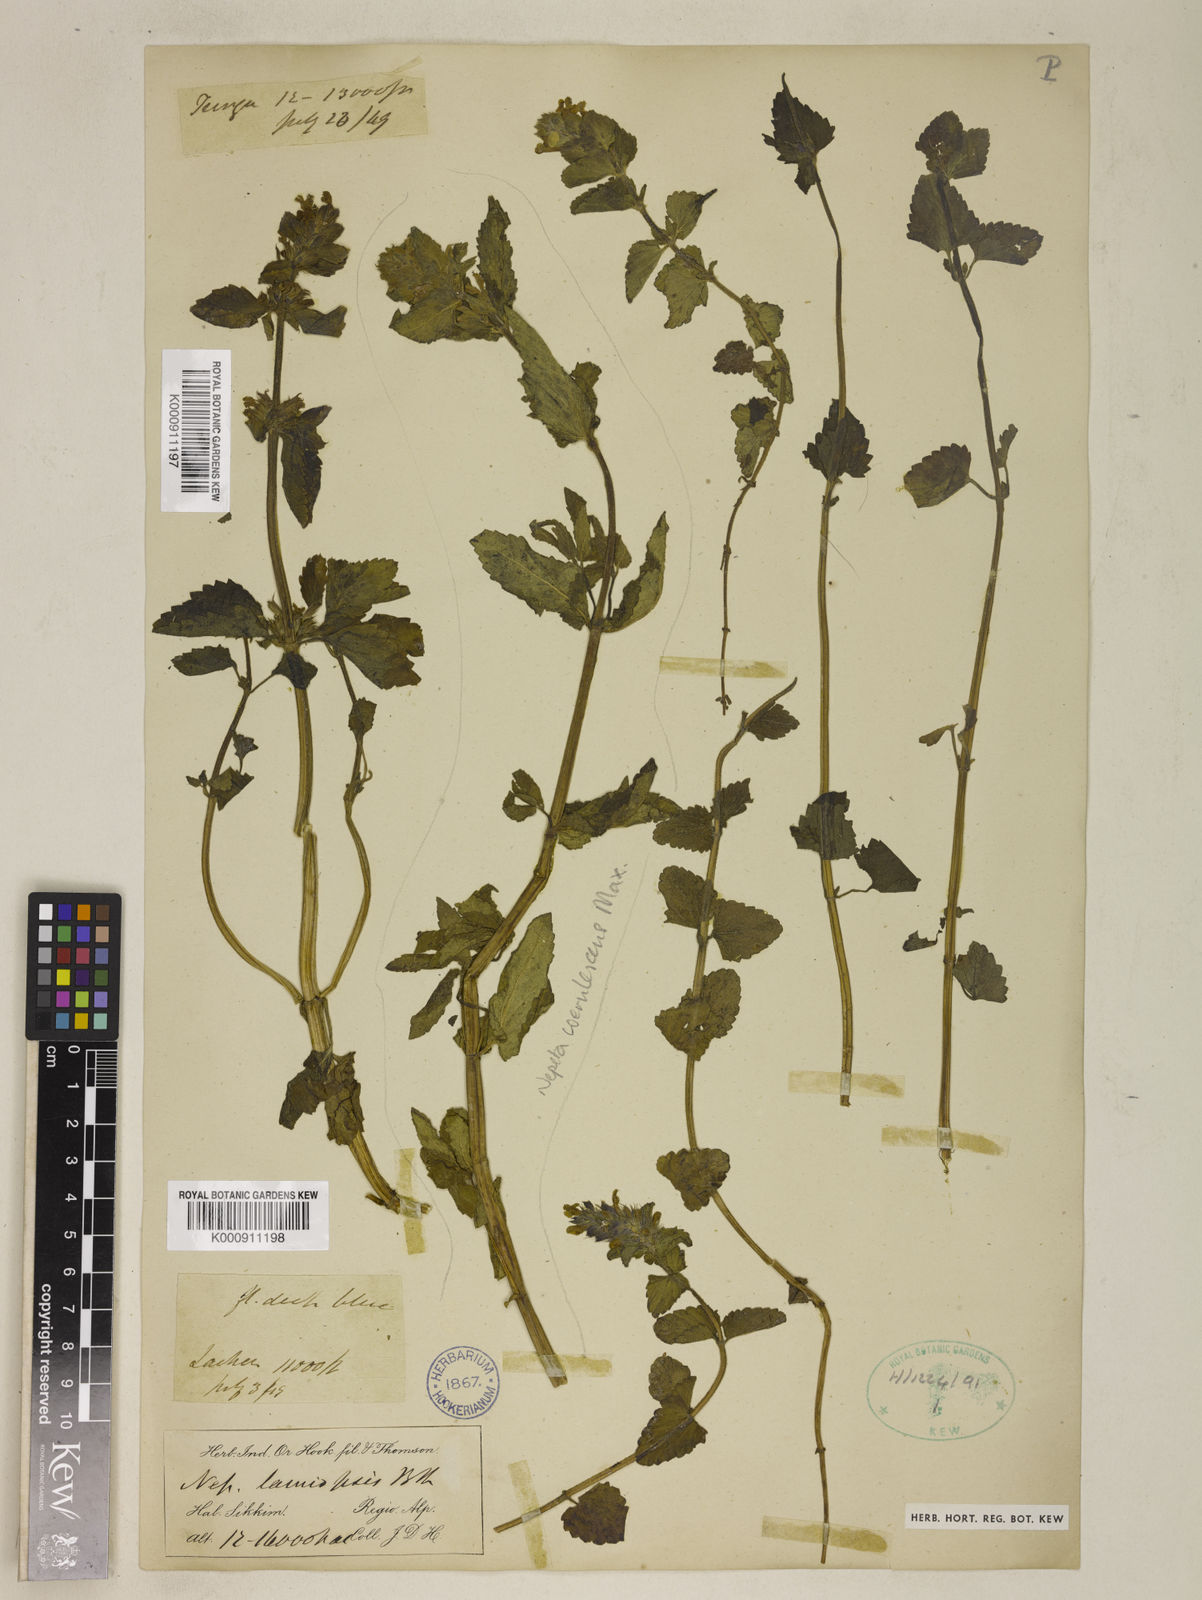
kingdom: Plantae
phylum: Tracheophyta
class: Magnoliopsida
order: Lamiales
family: Lamiaceae
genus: Nepeta
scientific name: Nepeta lamiopsis
